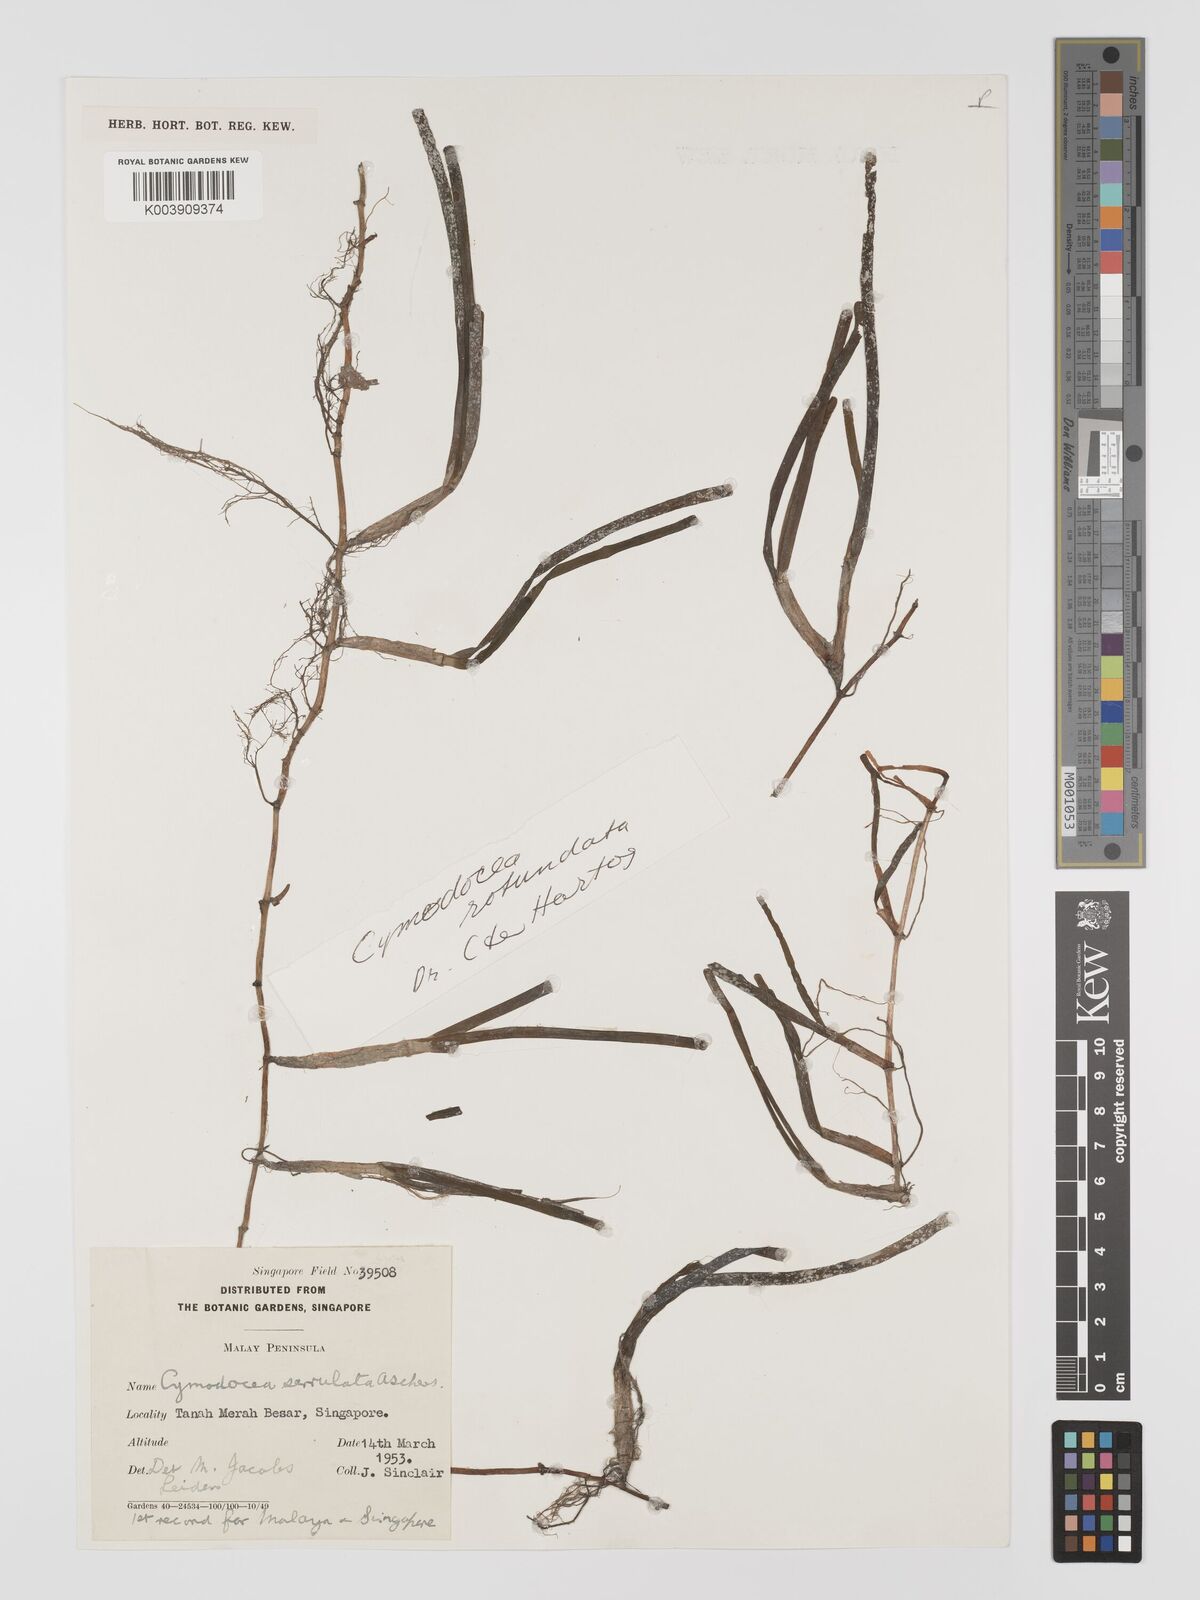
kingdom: Plantae
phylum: Tracheophyta
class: Liliopsida
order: Alismatales
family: Cymodoceaceae
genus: Oceana
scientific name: Oceana serrulata
